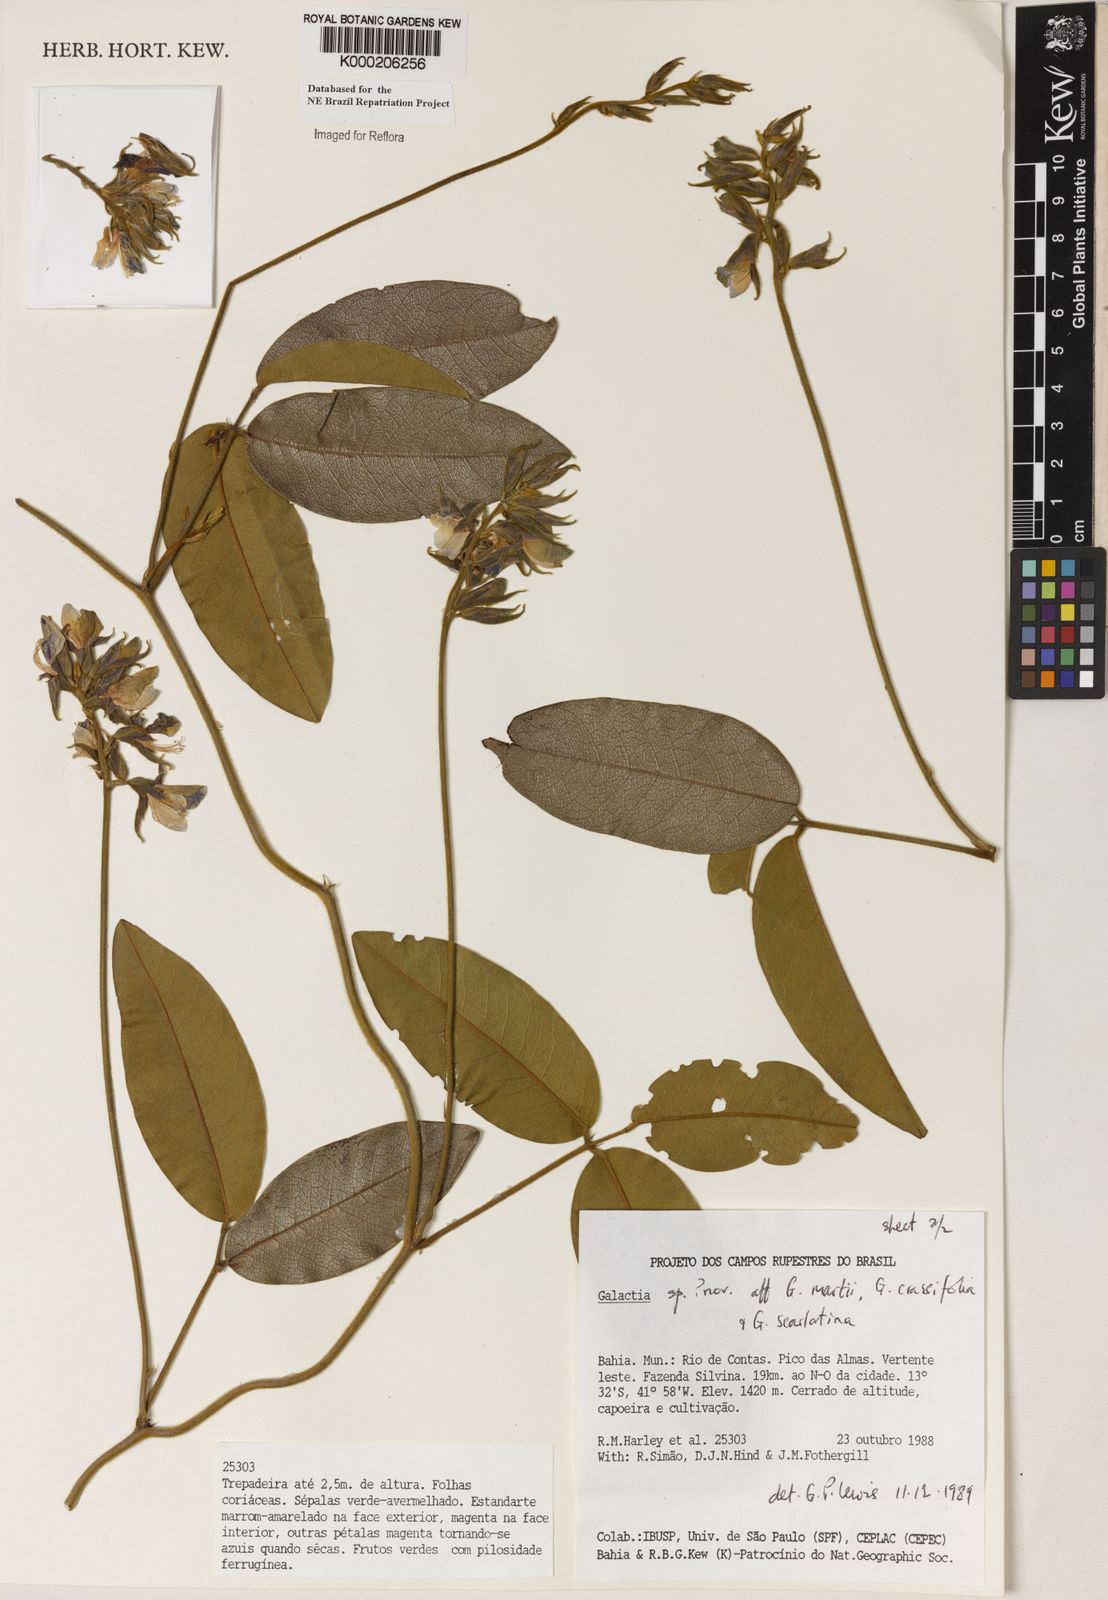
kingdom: Plantae
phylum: Tracheophyta
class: Magnoliopsida
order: Fabales
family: Fabaceae
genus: Galactia
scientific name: Galactia
